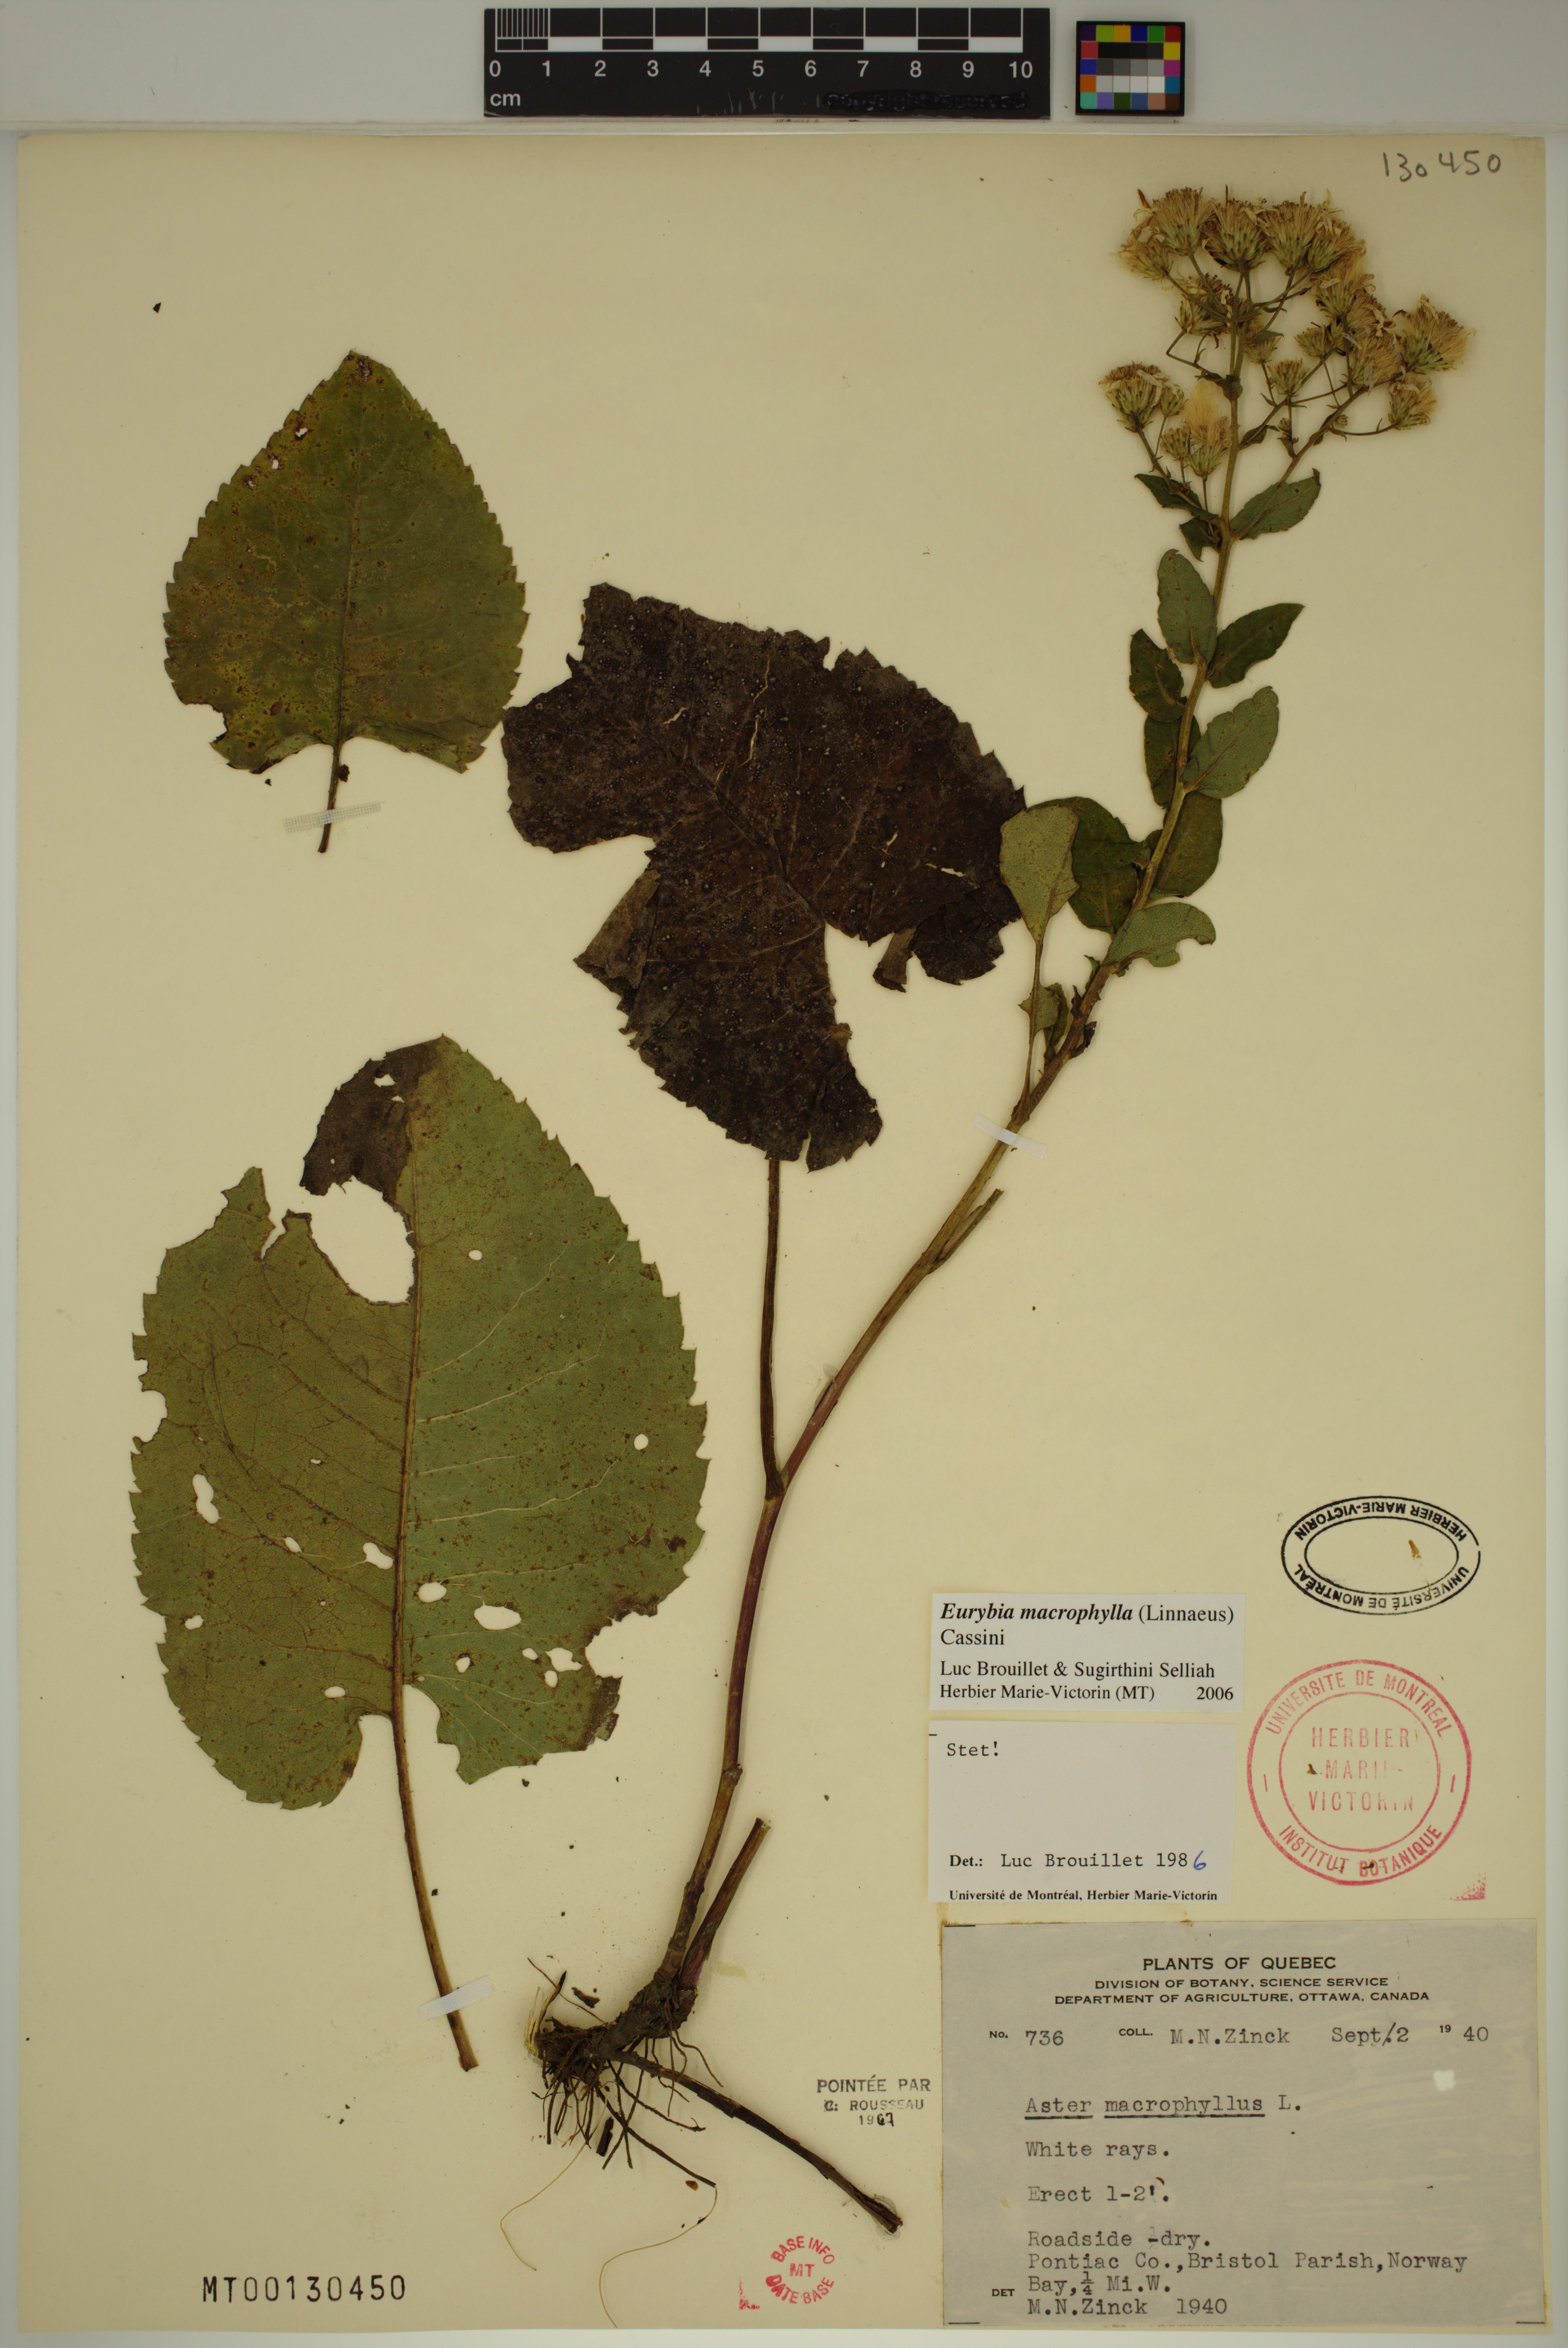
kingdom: Plantae
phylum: Tracheophyta
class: Magnoliopsida
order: Asterales
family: Asteraceae
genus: Eurybia
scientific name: Eurybia macrophylla
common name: Big-leaved aster
